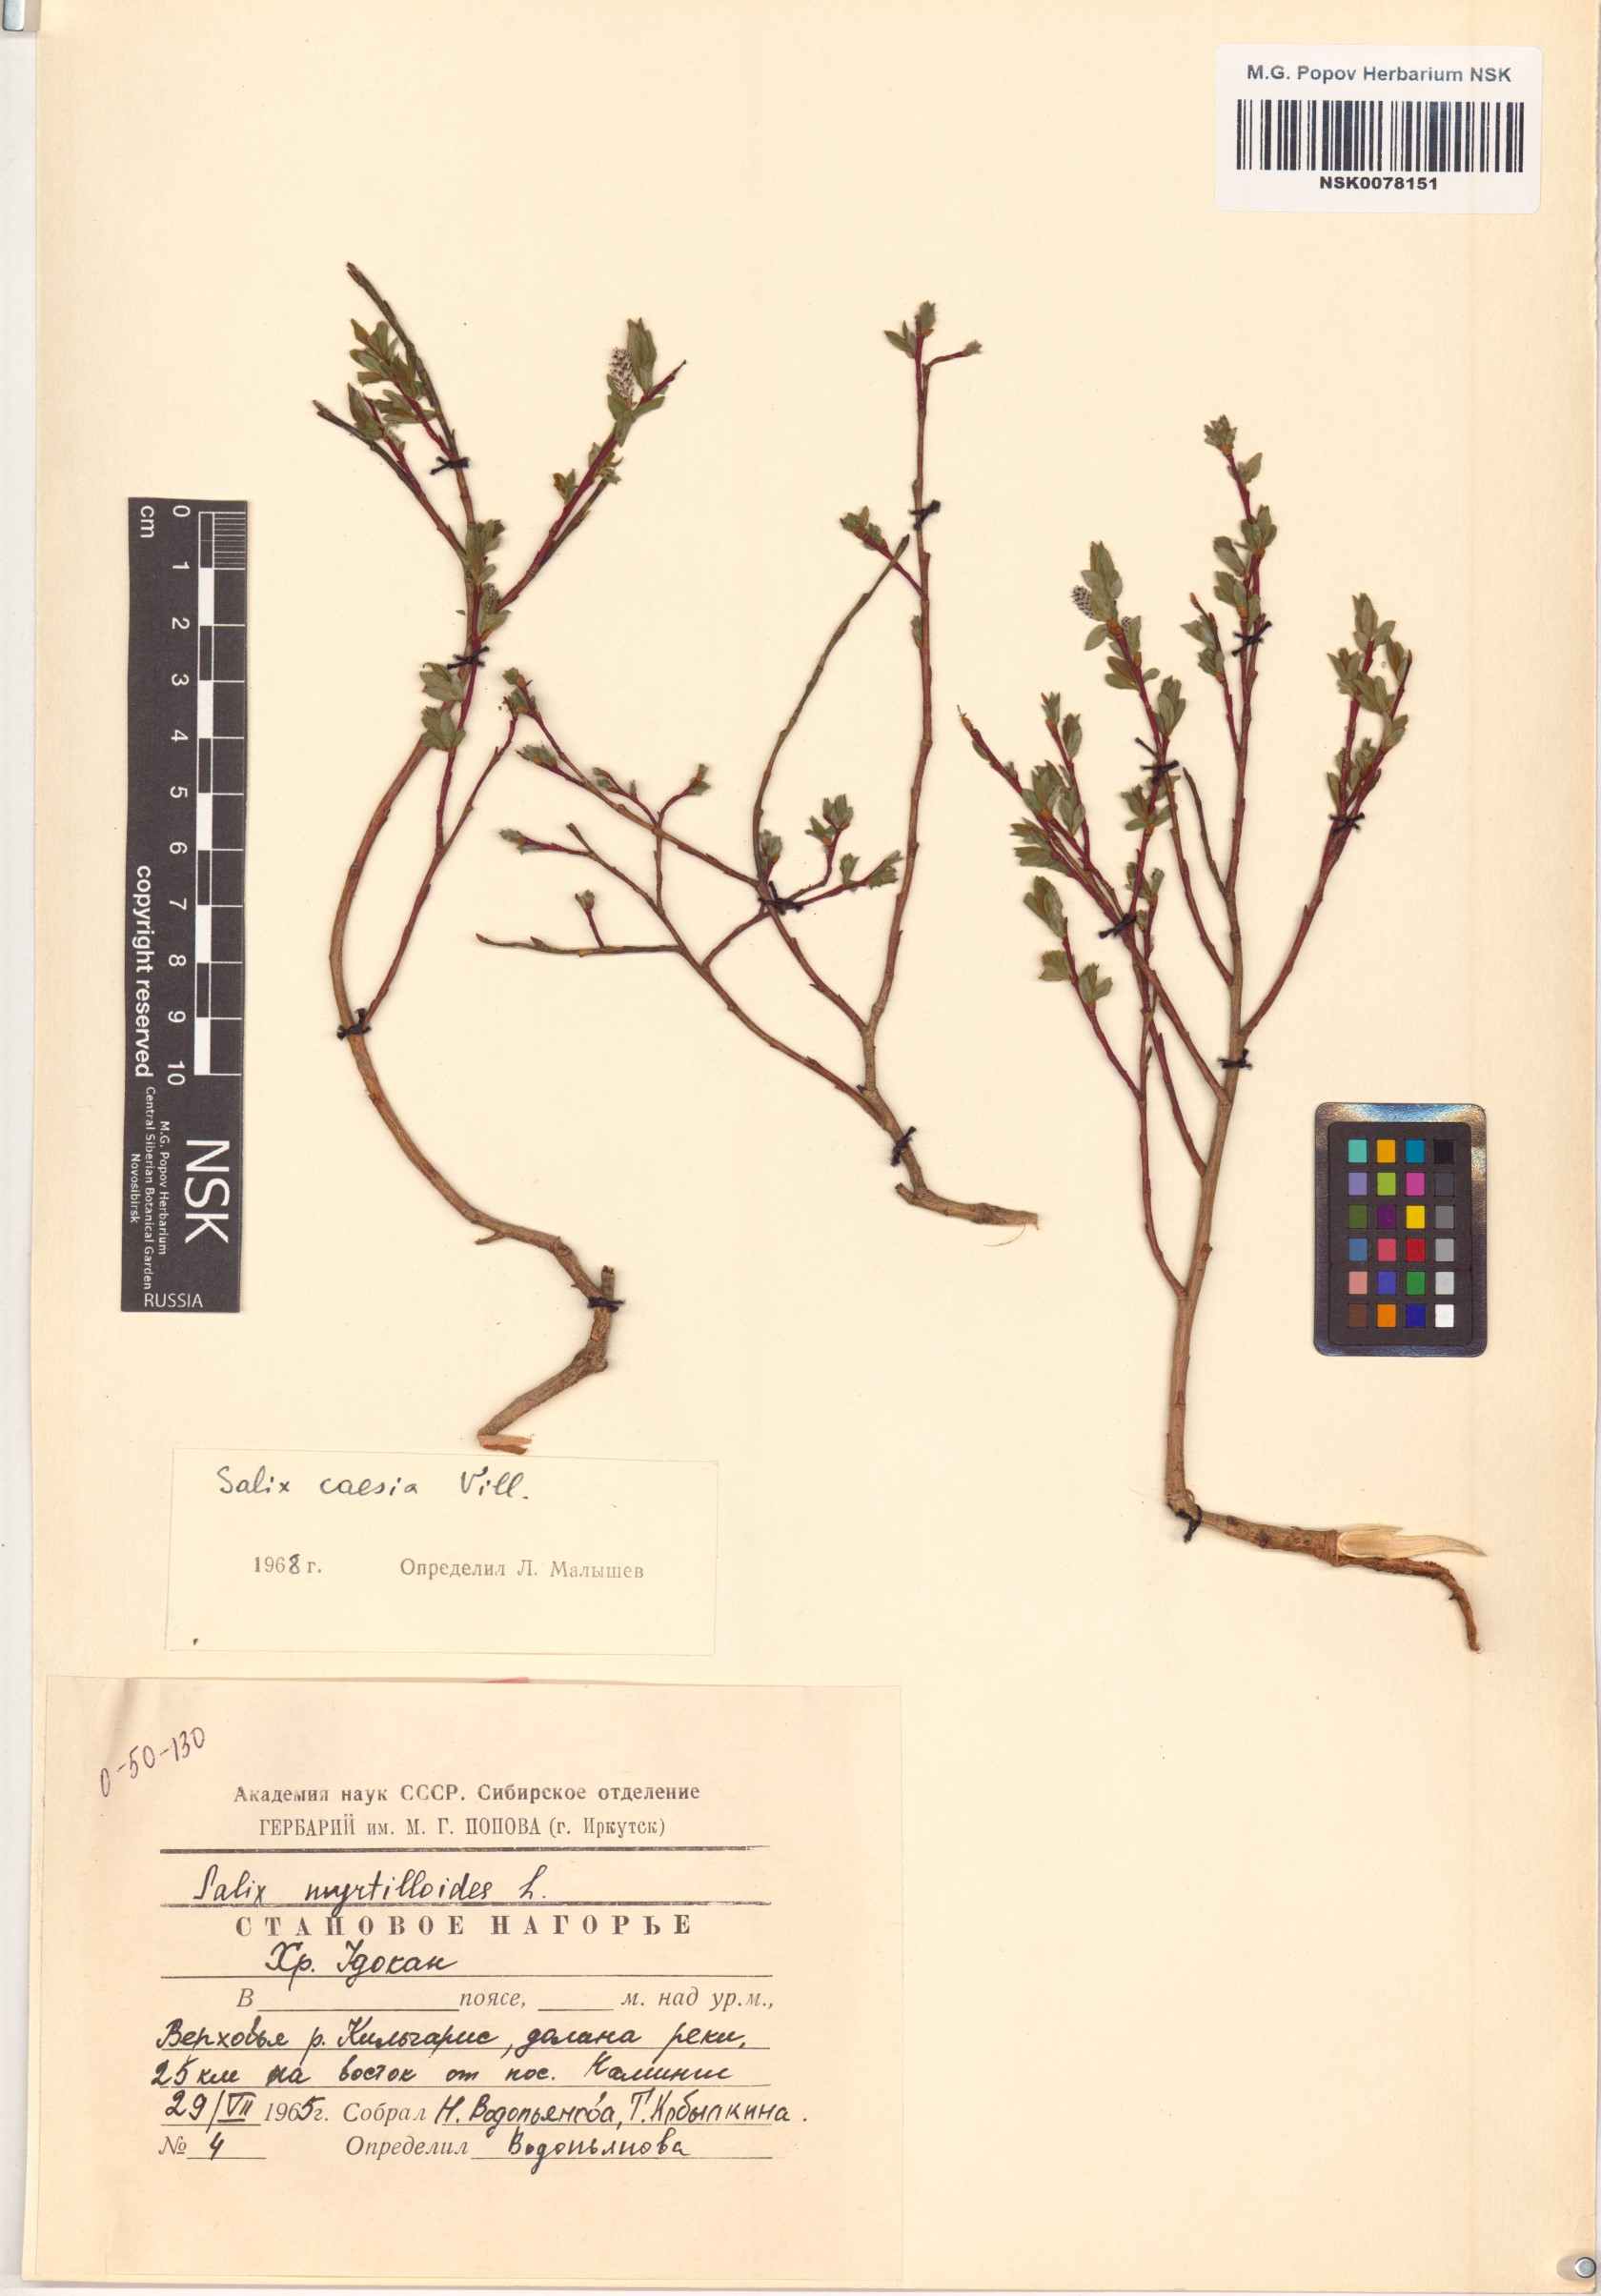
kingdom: Plantae
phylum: Tracheophyta
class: Magnoliopsida
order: Malpighiales
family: Salicaceae
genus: Salix
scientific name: Salix caesia
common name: Blue willow
